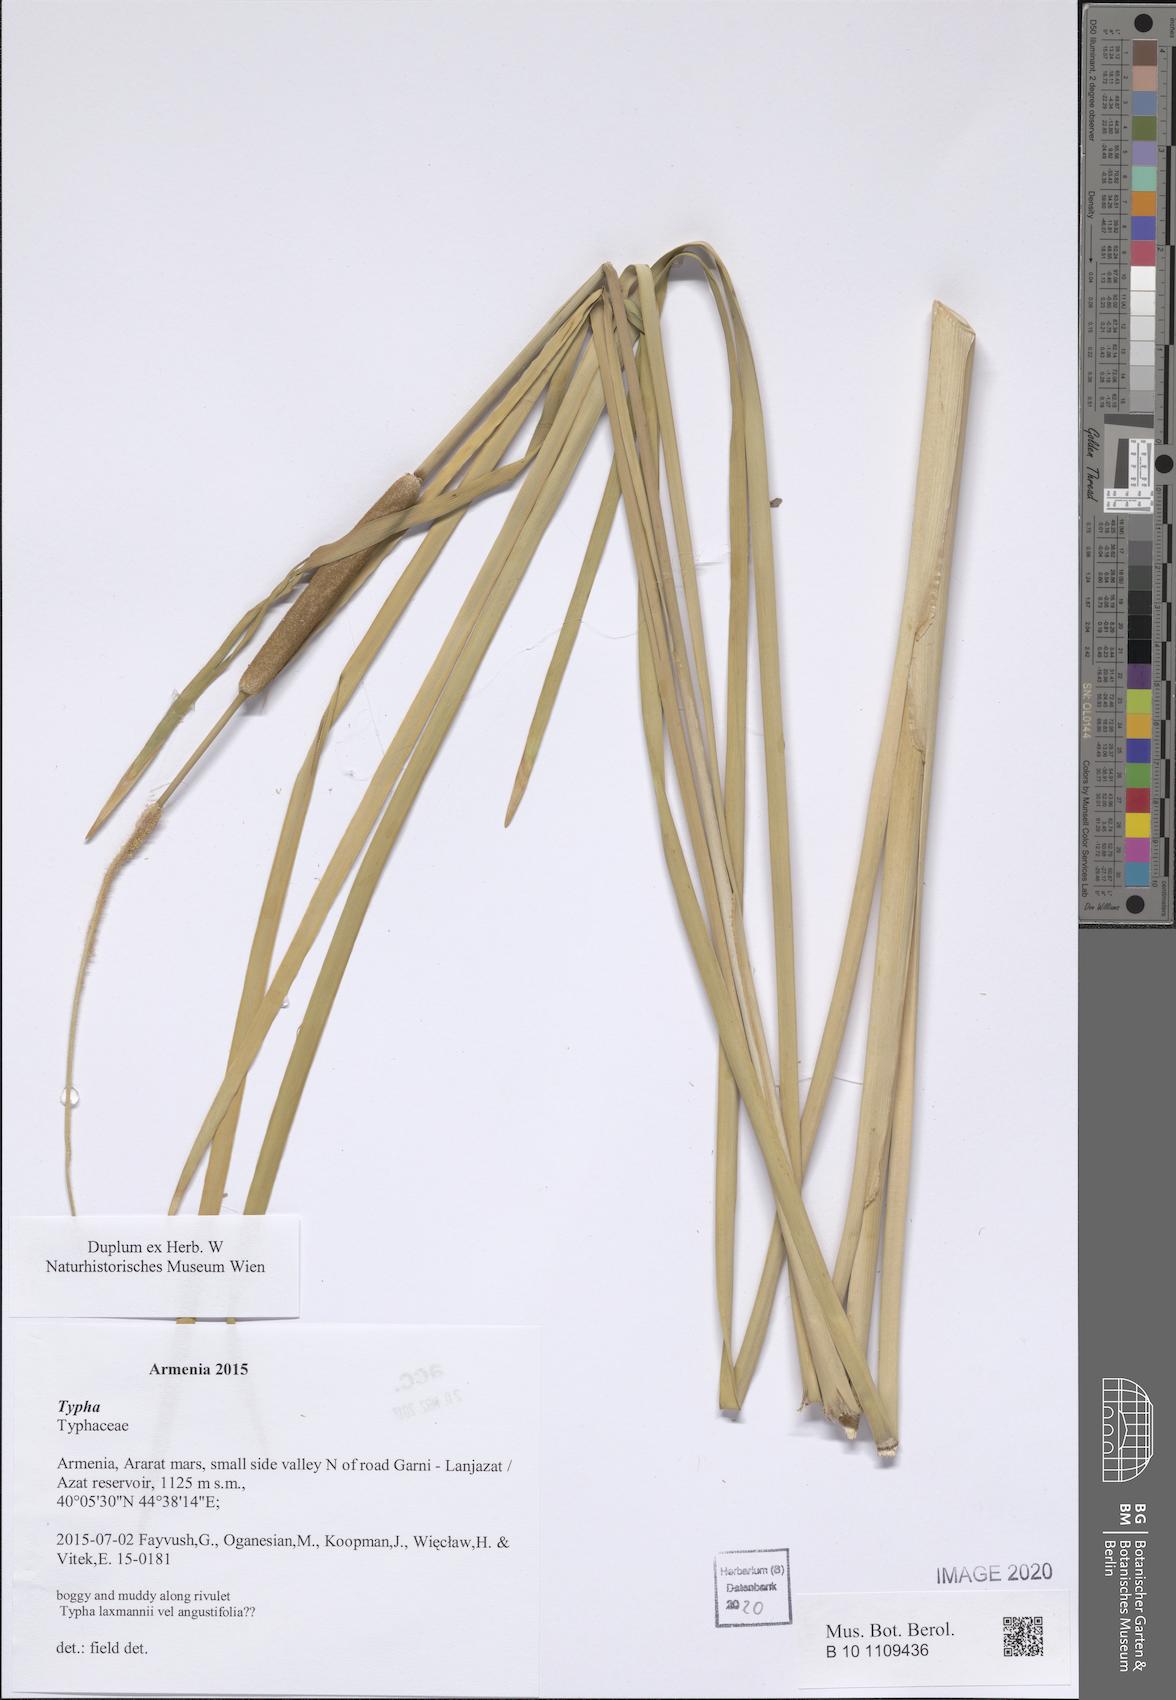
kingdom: Plantae
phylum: Tracheophyta
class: Liliopsida
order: Poales
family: Typhaceae
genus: Typha
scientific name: Typha
